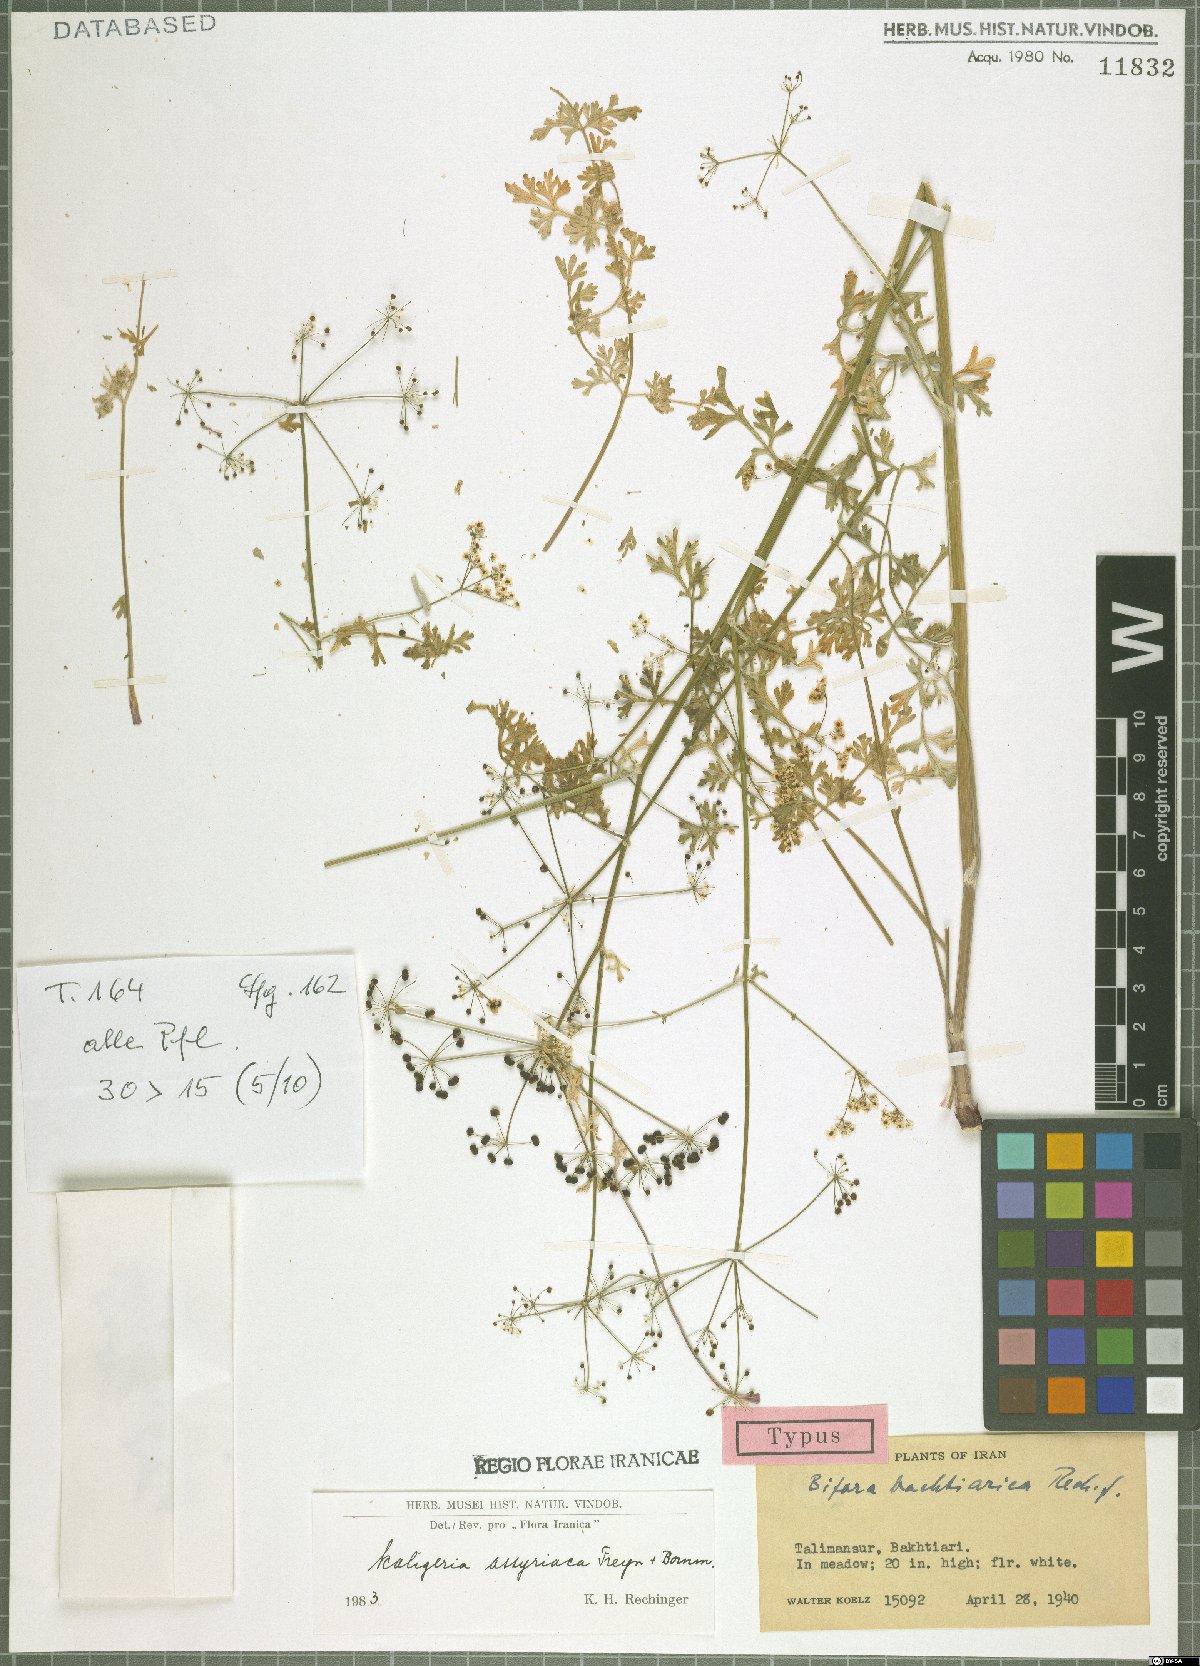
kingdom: Plantae
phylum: Tracheophyta
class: Magnoliopsida
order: Apiales
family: Apiaceae
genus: Korshinskia
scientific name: Korshinskia assyriaca
